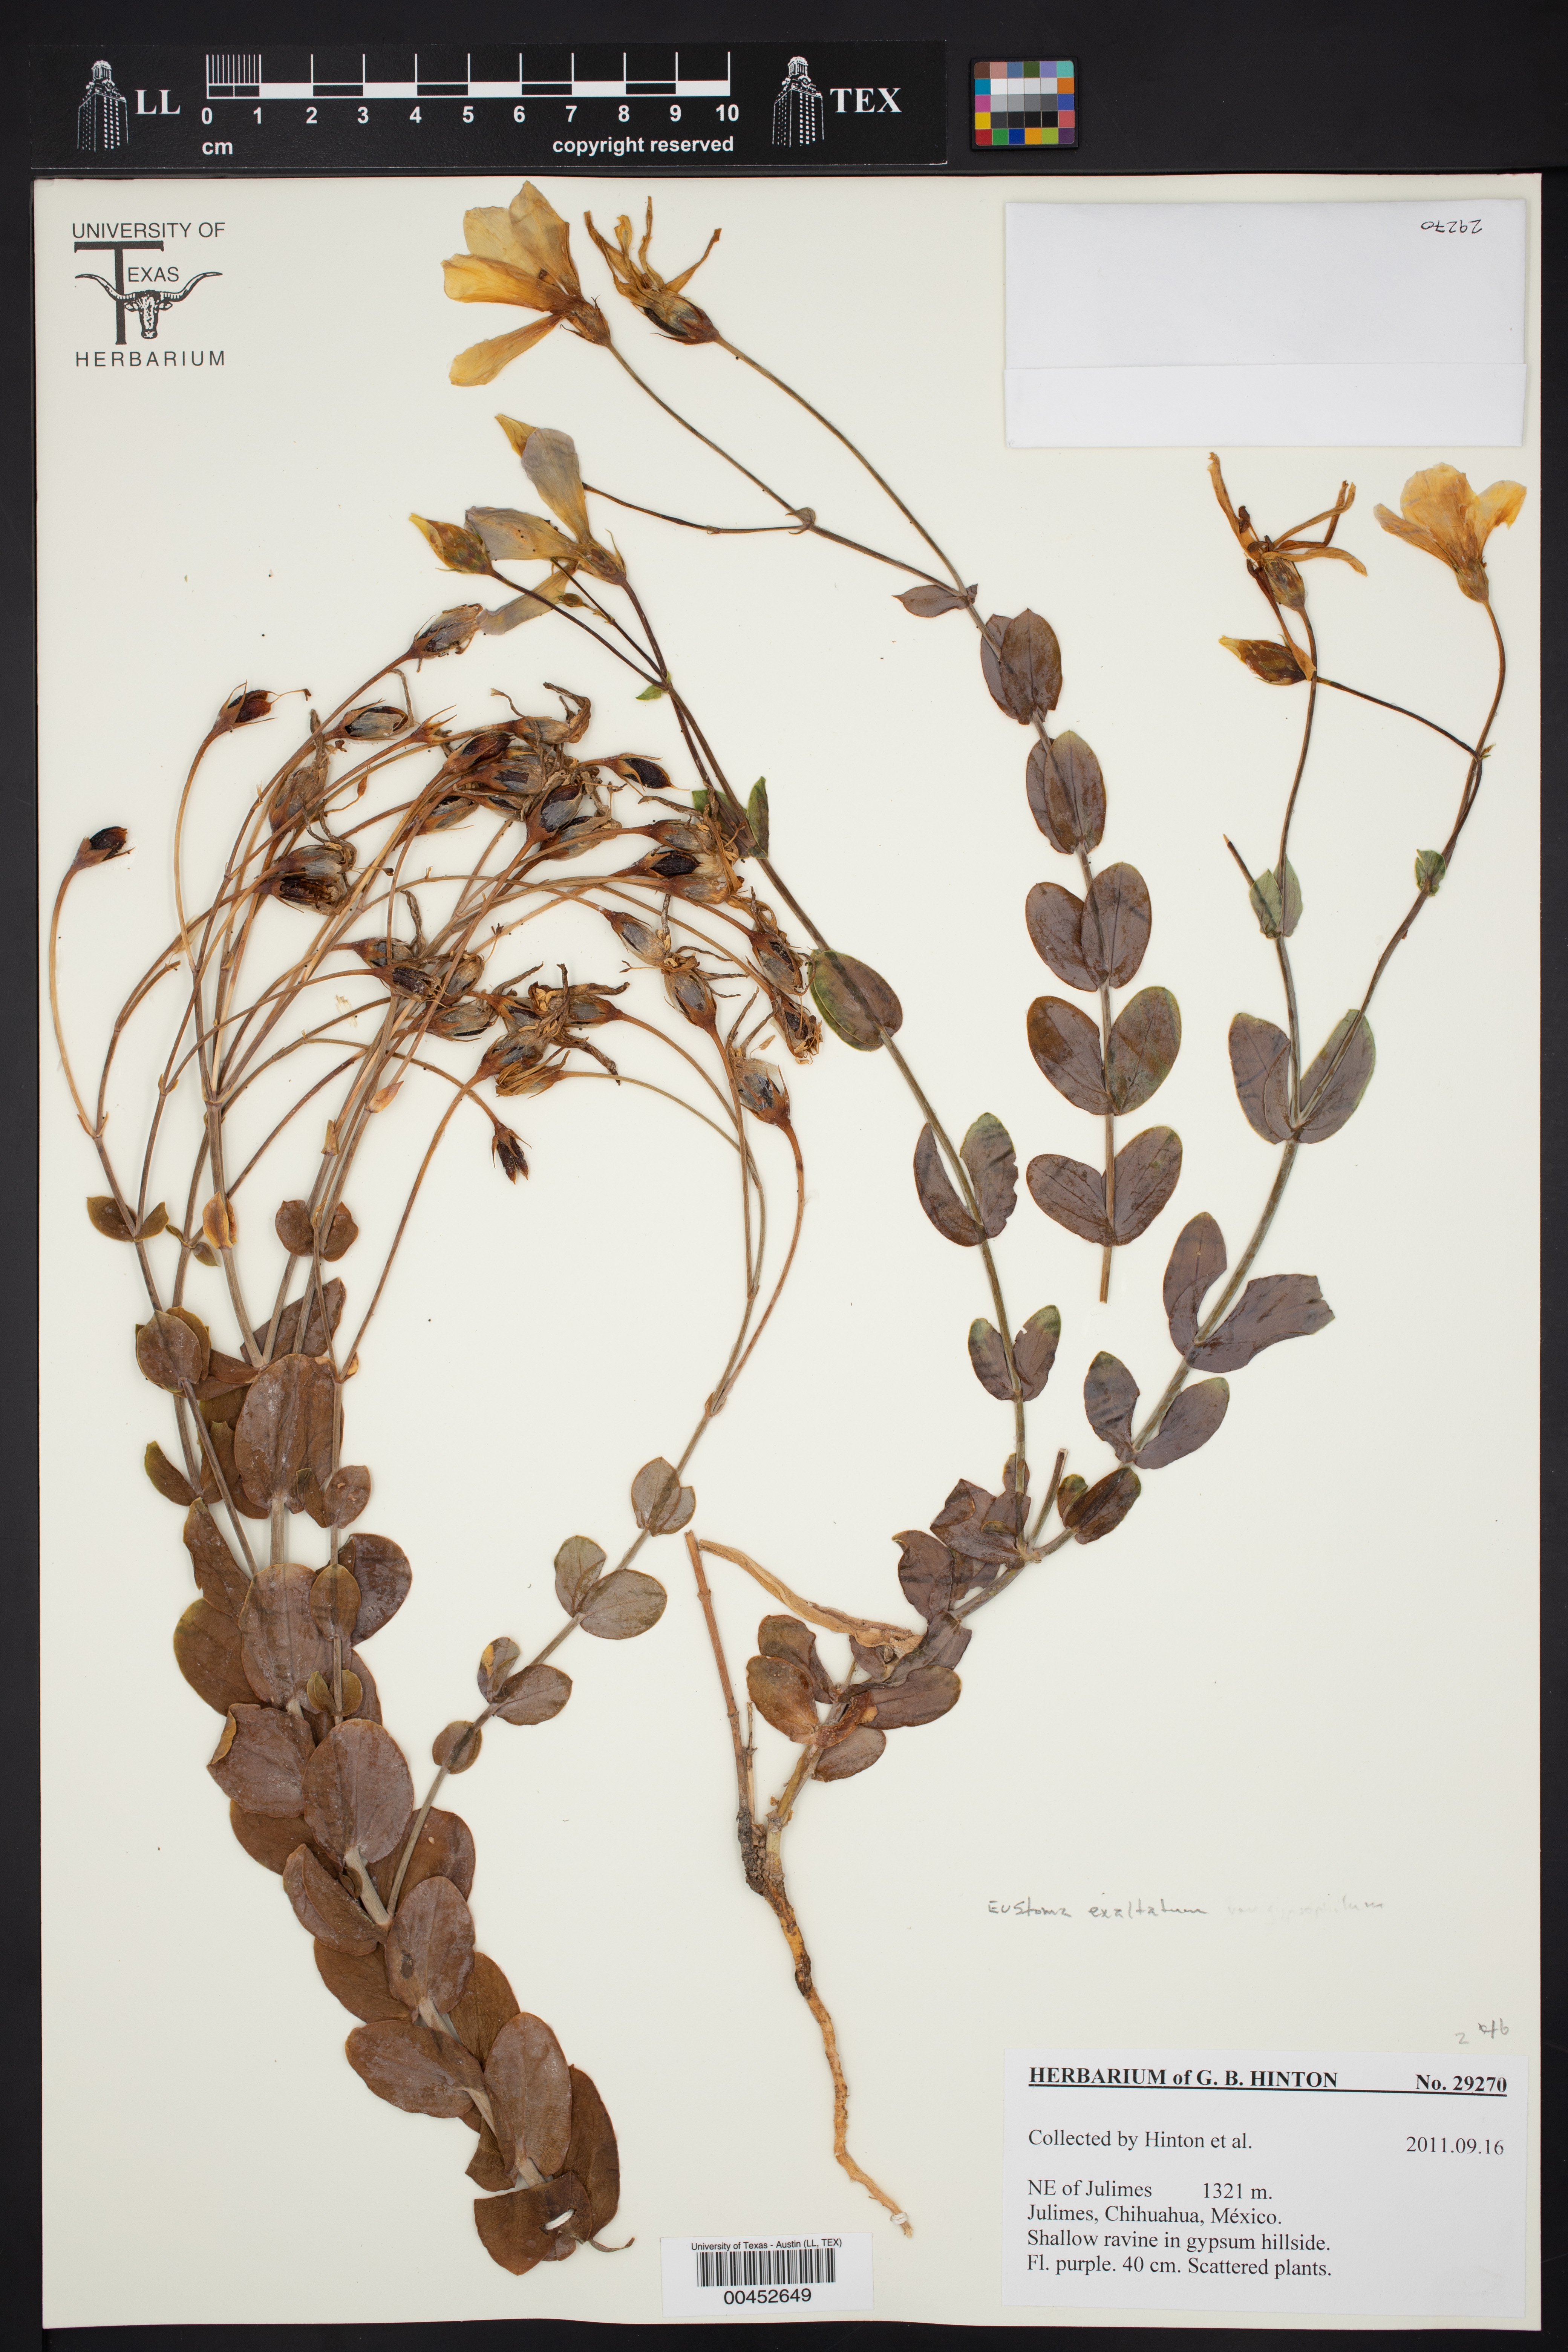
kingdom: Plantae
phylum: Tracheophyta
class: Magnoliopsida
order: Gentianales
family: Gentianaceae
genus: Eustoma
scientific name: Eustoma exaltatum
